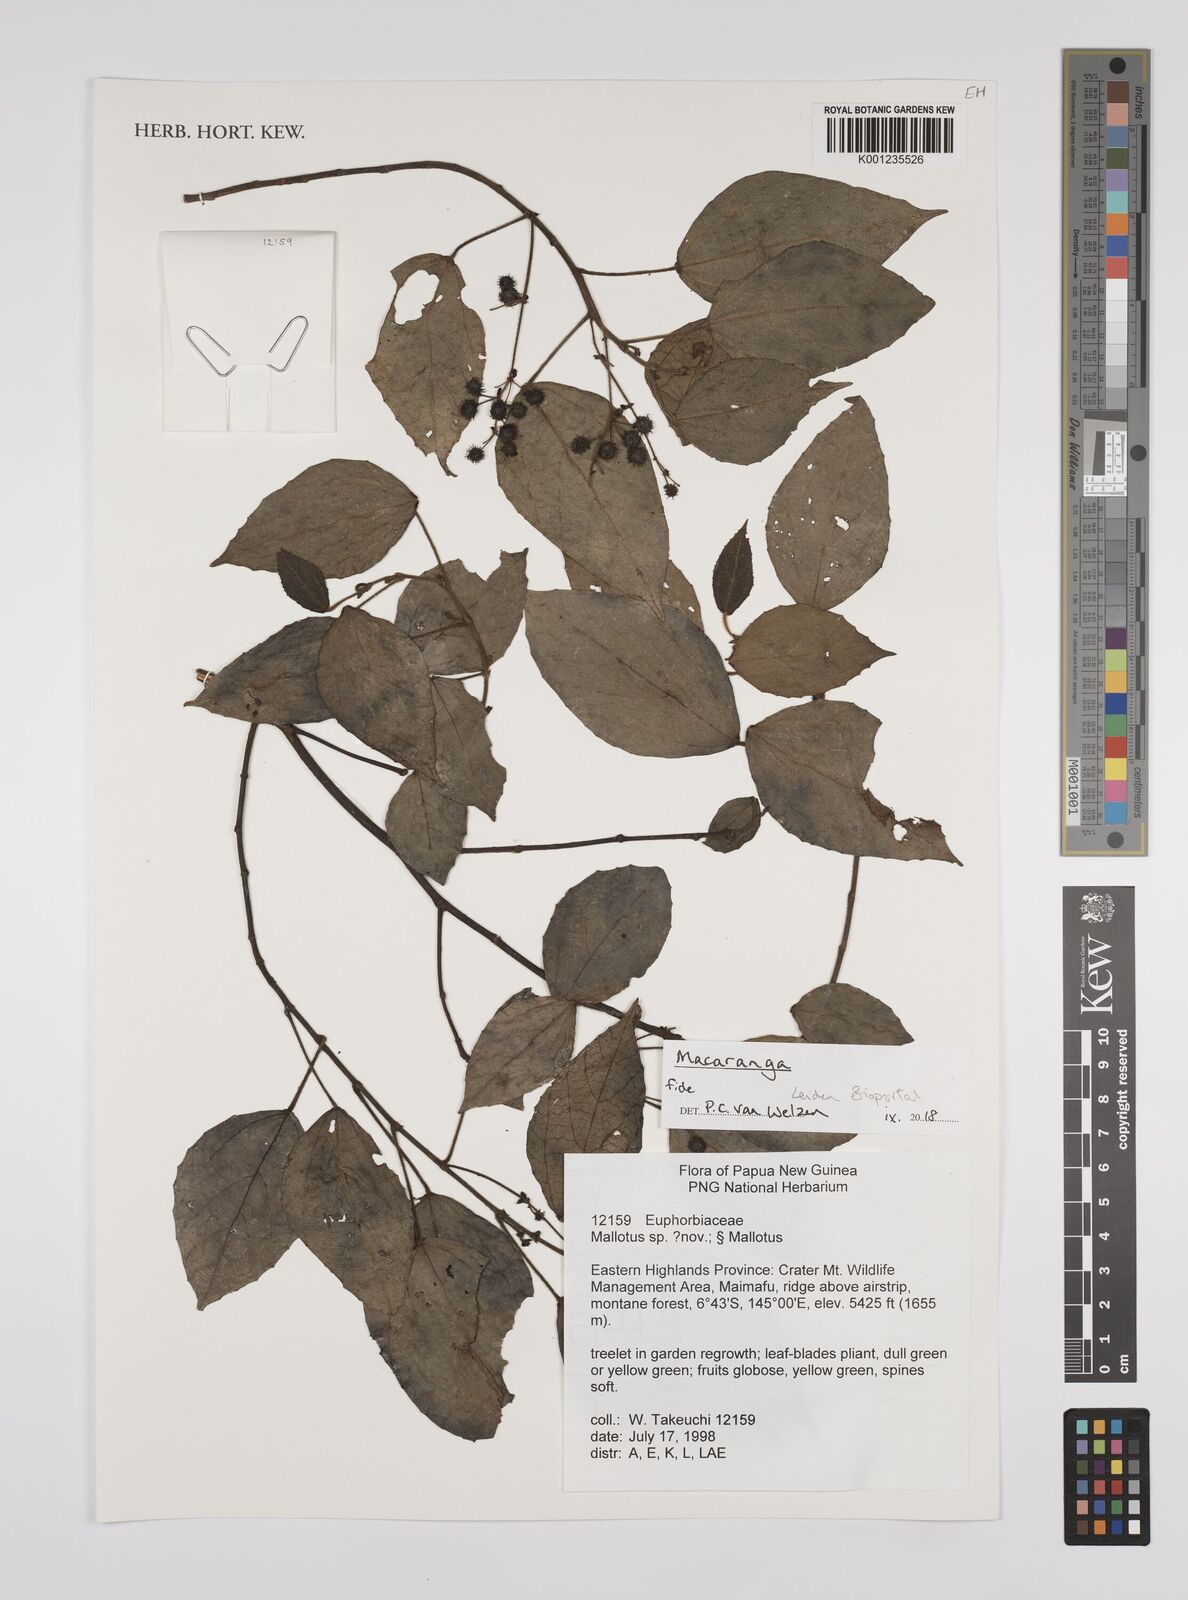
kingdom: Plantae
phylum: Tracheophyta
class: Magnoliopsida
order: Malpighiales
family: Euphorbiaceae
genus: Macaranga
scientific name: Macaranga
